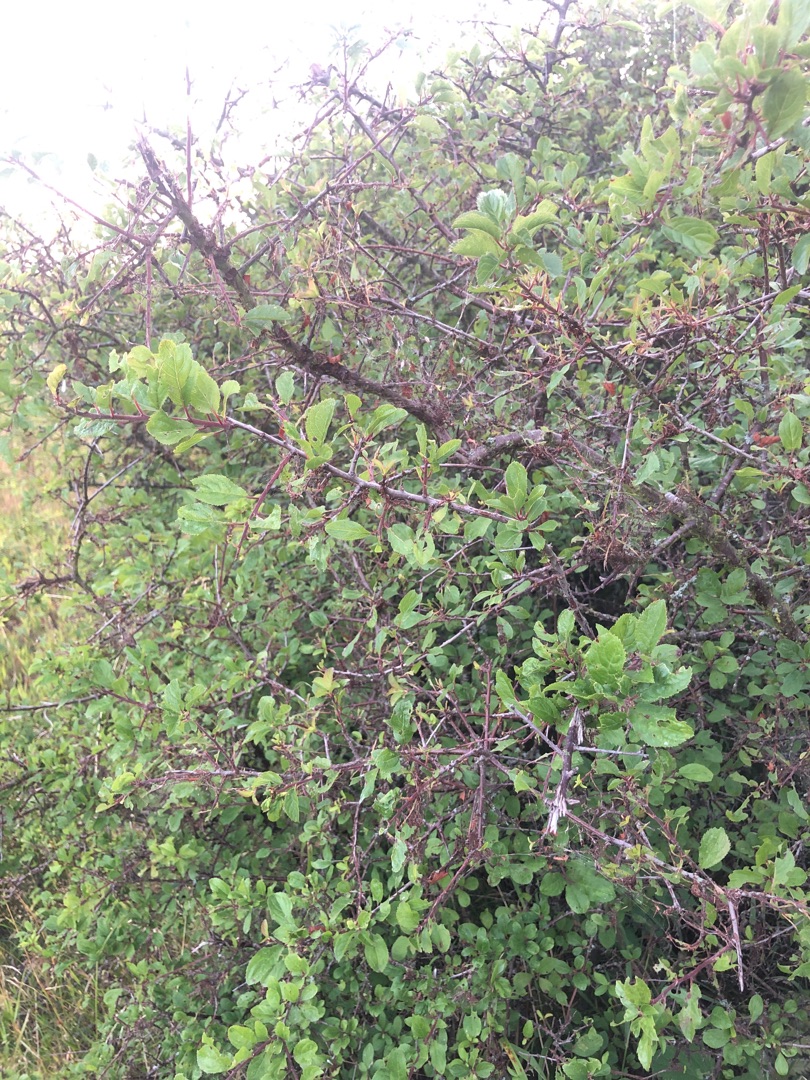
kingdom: Plantae
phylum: Tracheophyta
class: Magnoliopsida
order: Rosales
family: Rosaceae
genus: Prunus
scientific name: Prunus spinosa
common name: Slåen
